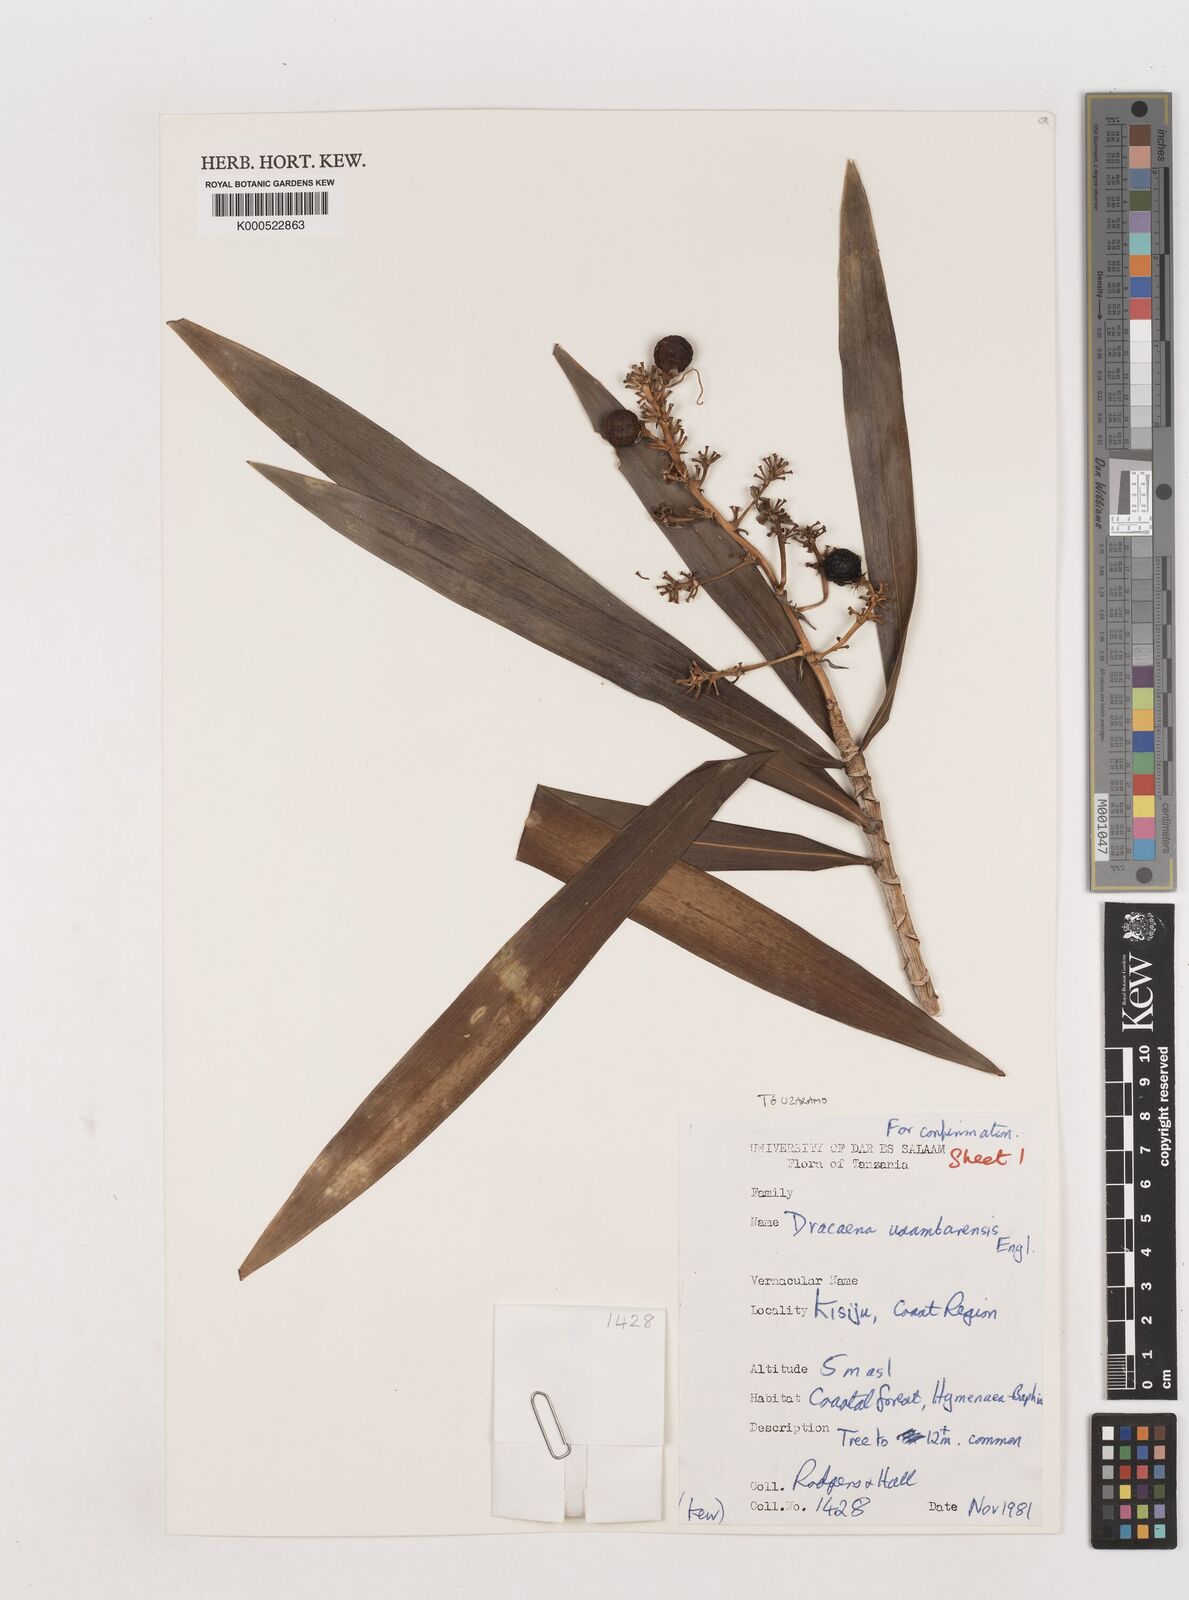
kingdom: Plantae
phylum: Tracheophyta
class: Liliopsida
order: Asparagales
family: Asparagaceae
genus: Dracaena
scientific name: Dracaena usambarensis
